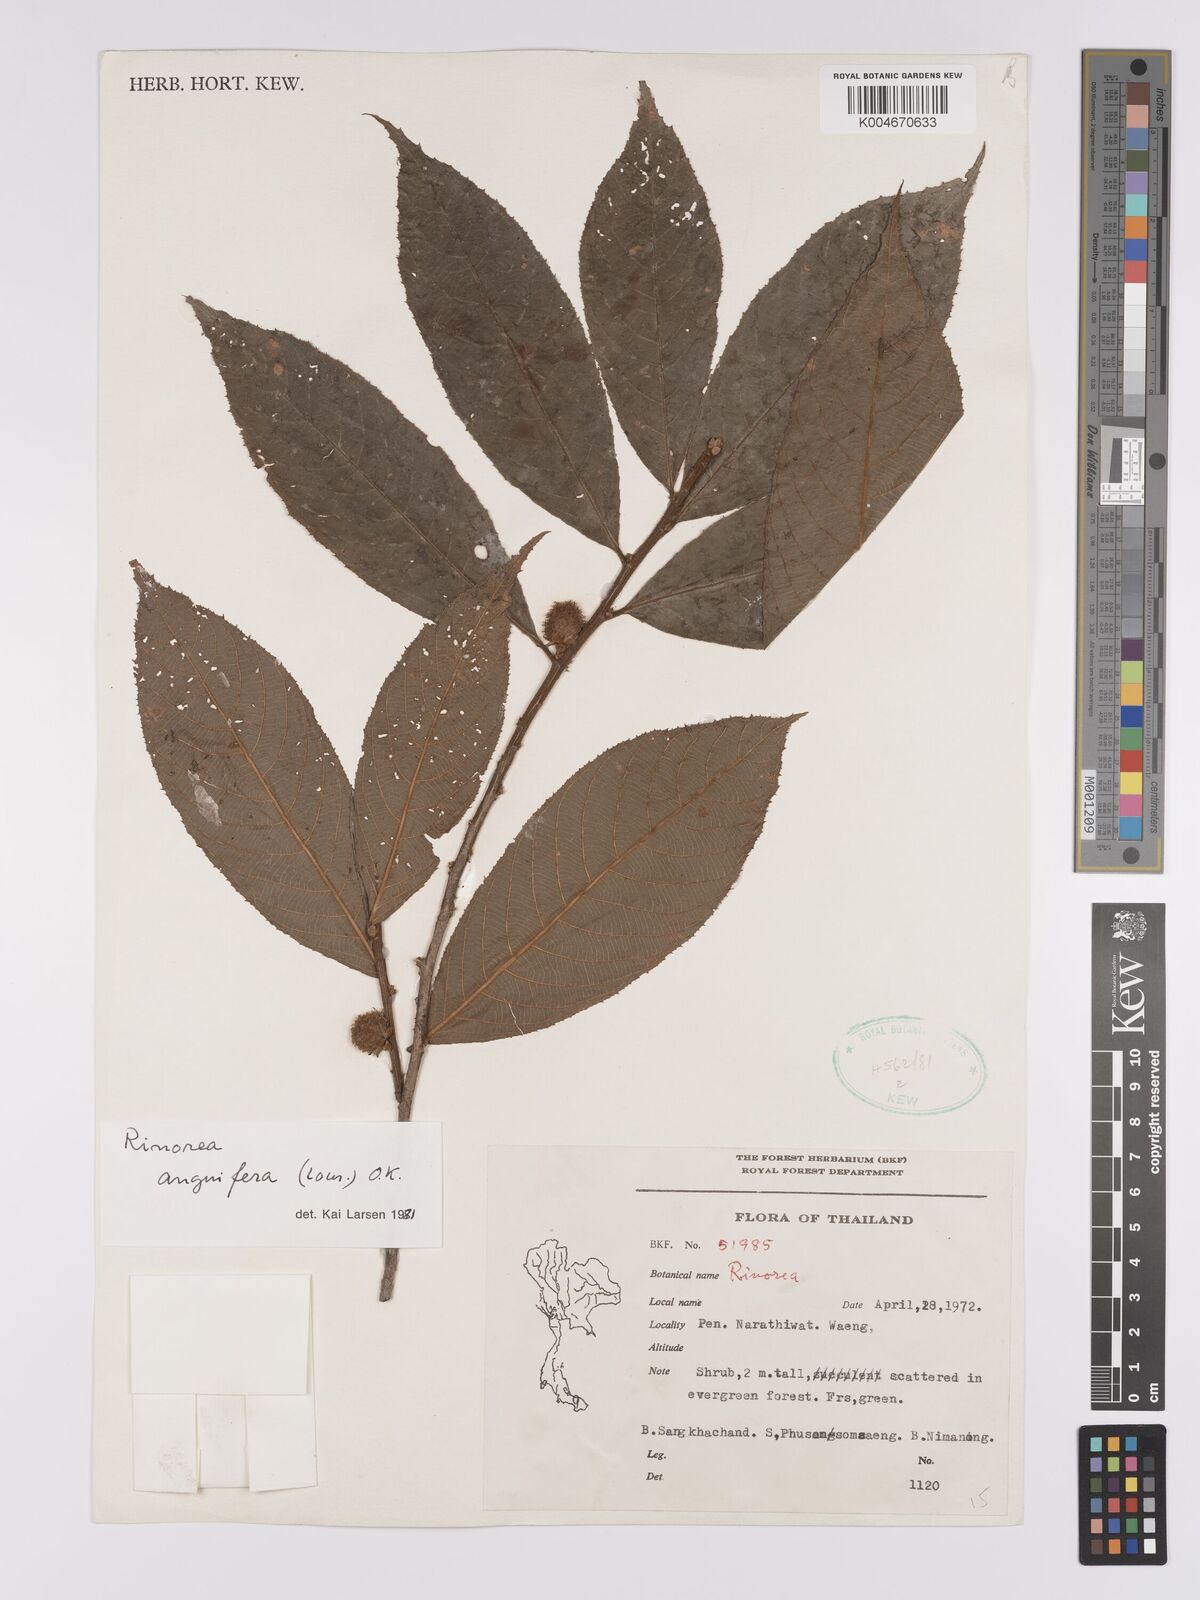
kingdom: Plantae
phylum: Tracheophyta
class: Magnoliopsida
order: Malpighiales
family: Violaceae
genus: Rinorea
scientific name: Rinorea anguifera
